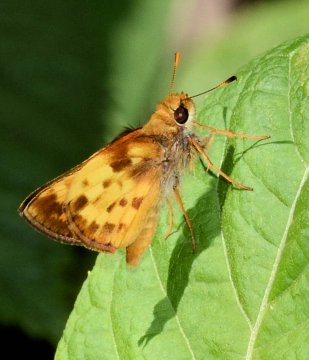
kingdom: Animalia
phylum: Arthropoda
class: Insecta
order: Lepidoptera
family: Hesperiidae
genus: Lon
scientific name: Lon zabulon
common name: Zabulon Skipper
